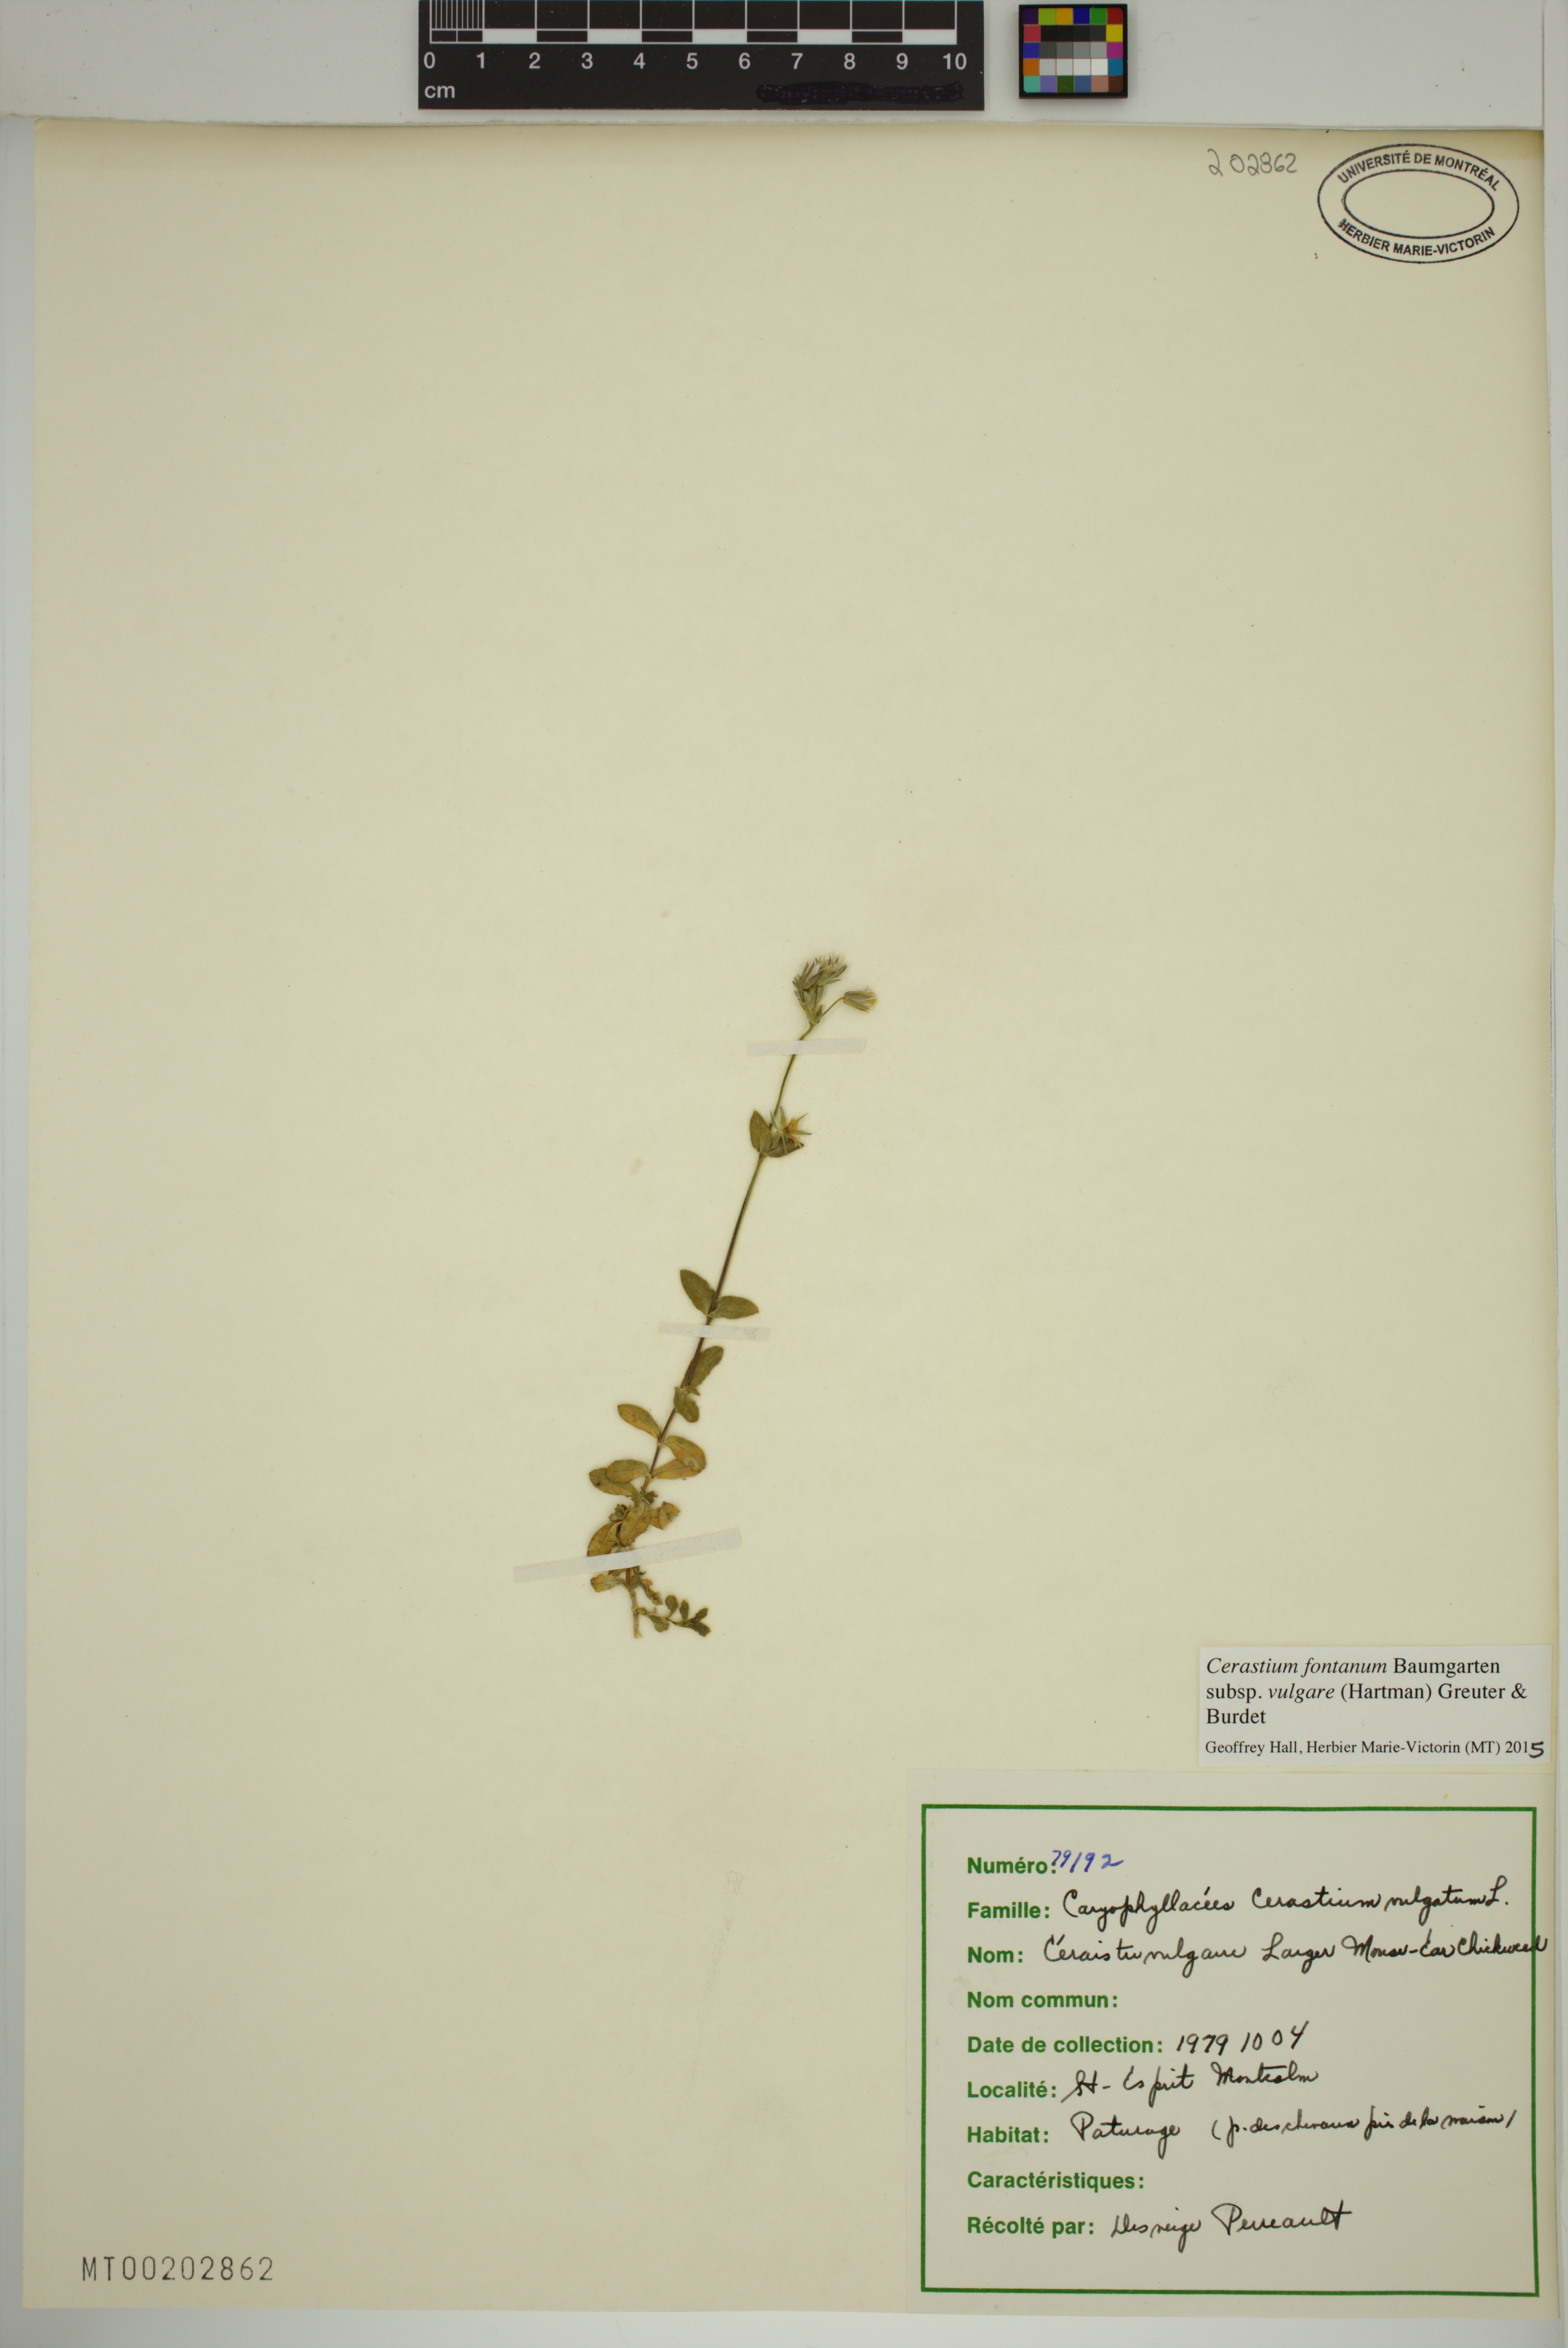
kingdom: Plantae
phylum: Tracheophyta
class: Magnoliopsida
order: Caryophyllales
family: Caryophyllaceae
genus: Cerastium
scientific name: Cerastium holosteoides
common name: Big chickweed
